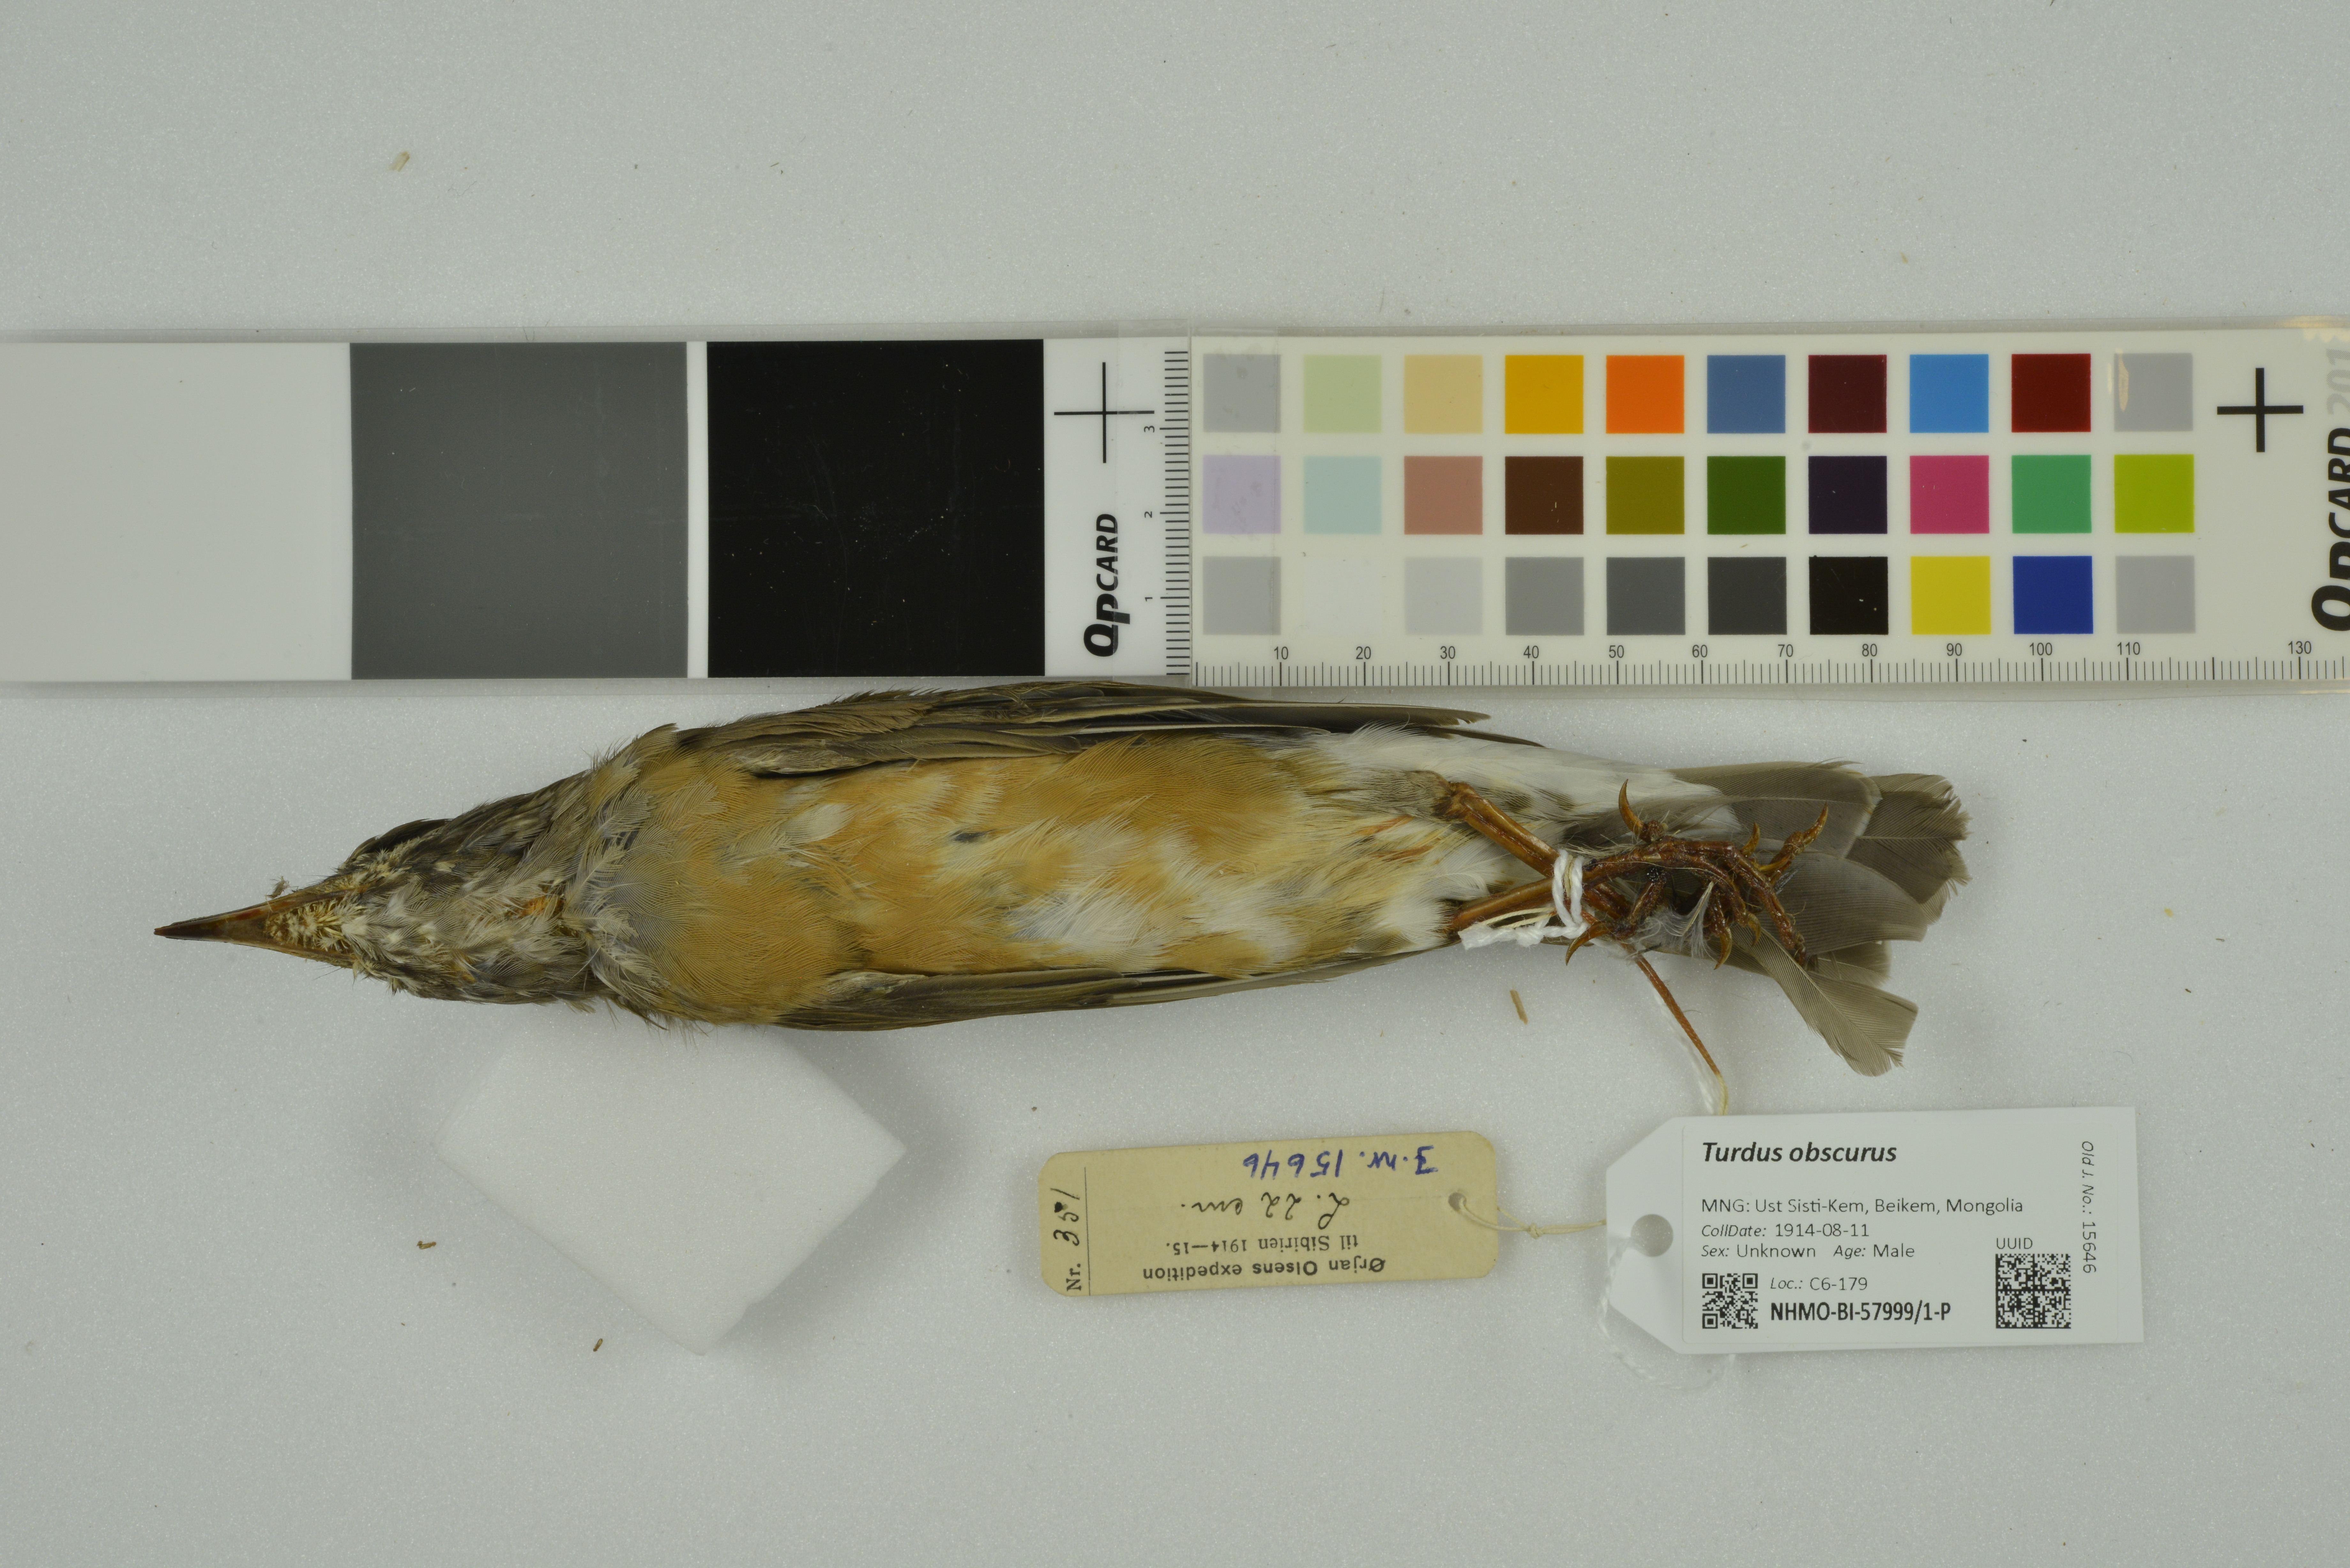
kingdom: Animalia
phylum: Chordata
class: Aves
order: Passeriformes
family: Turdidae
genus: Turdus
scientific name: Turdus obscurus
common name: Eyebrowed thrush
